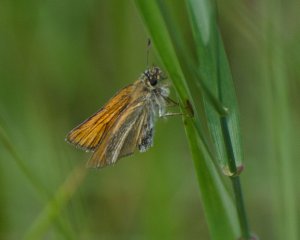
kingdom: Animalia
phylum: Arthropoda
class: Insecta
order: Lepidoptera
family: Hesperiidae
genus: Thymelicus
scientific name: Thymelicus lineola
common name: European Skipper
